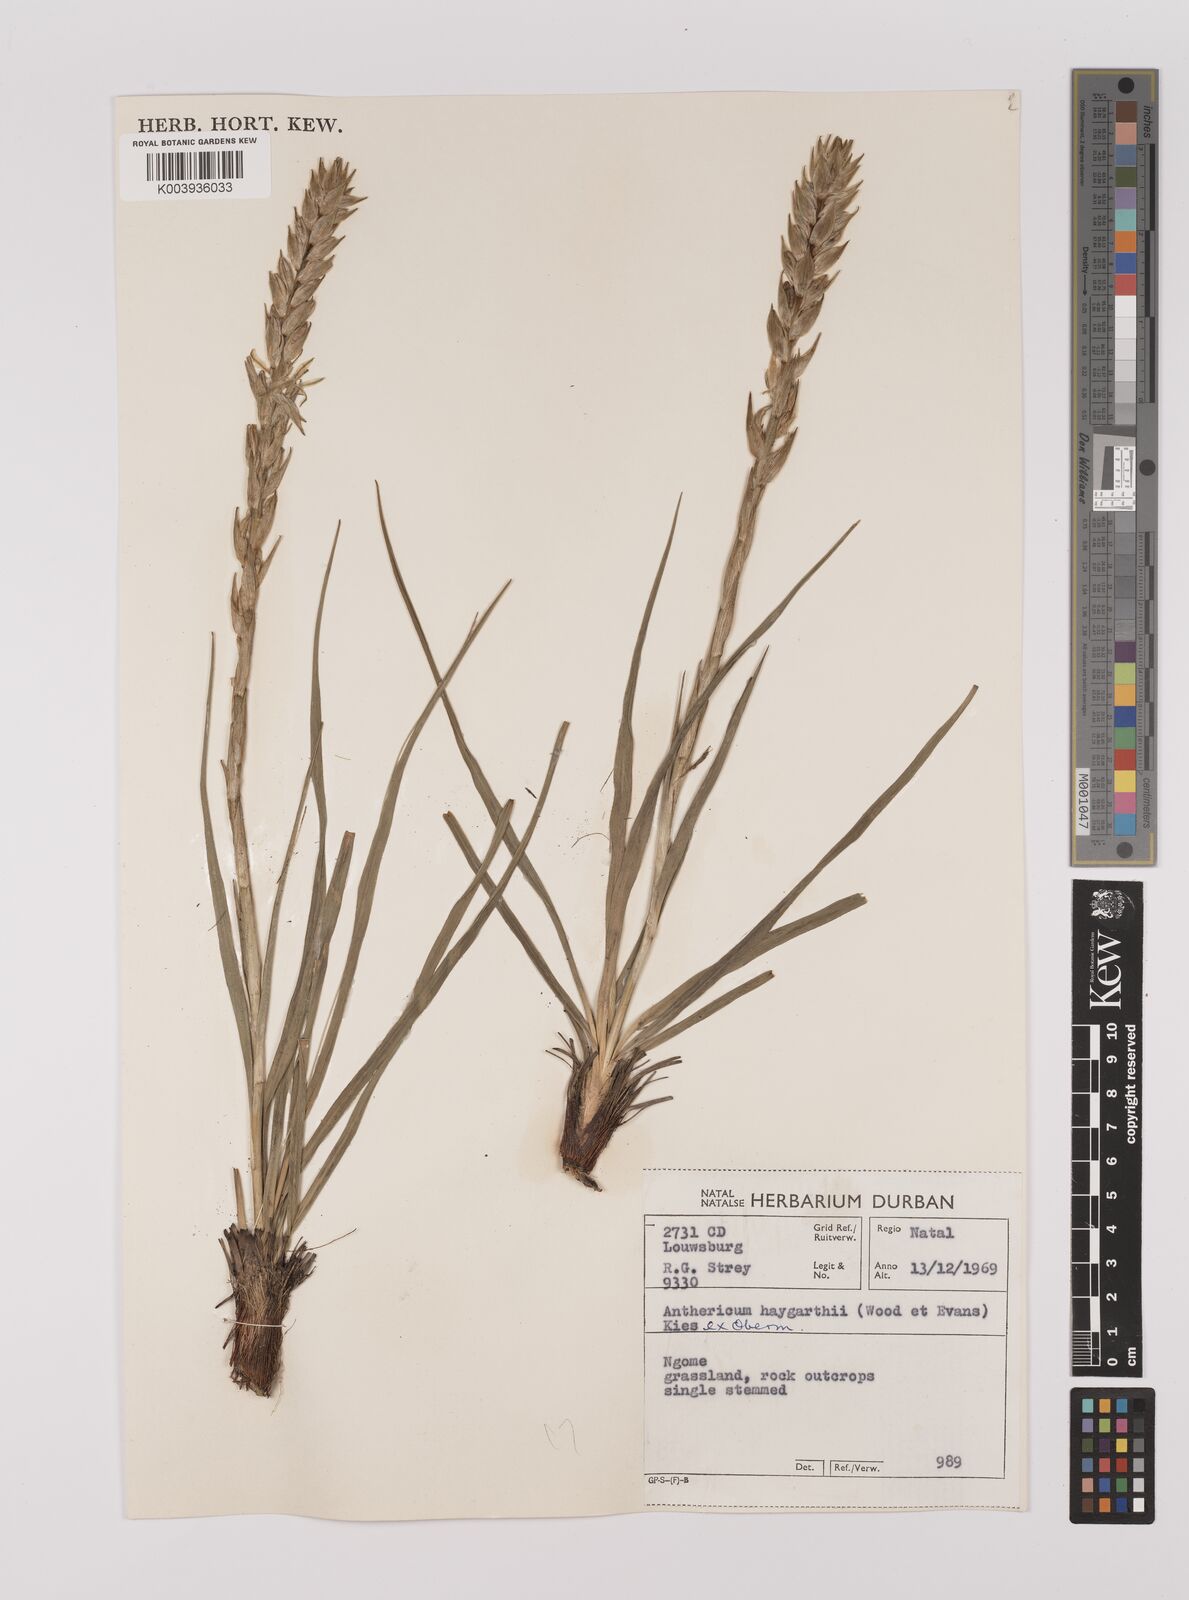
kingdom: Plantae
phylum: Tracheophyta
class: Liliopsida
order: Asparagales
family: Asparagaceae
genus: Chlorophytum
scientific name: Chlorophytum haygarthii
